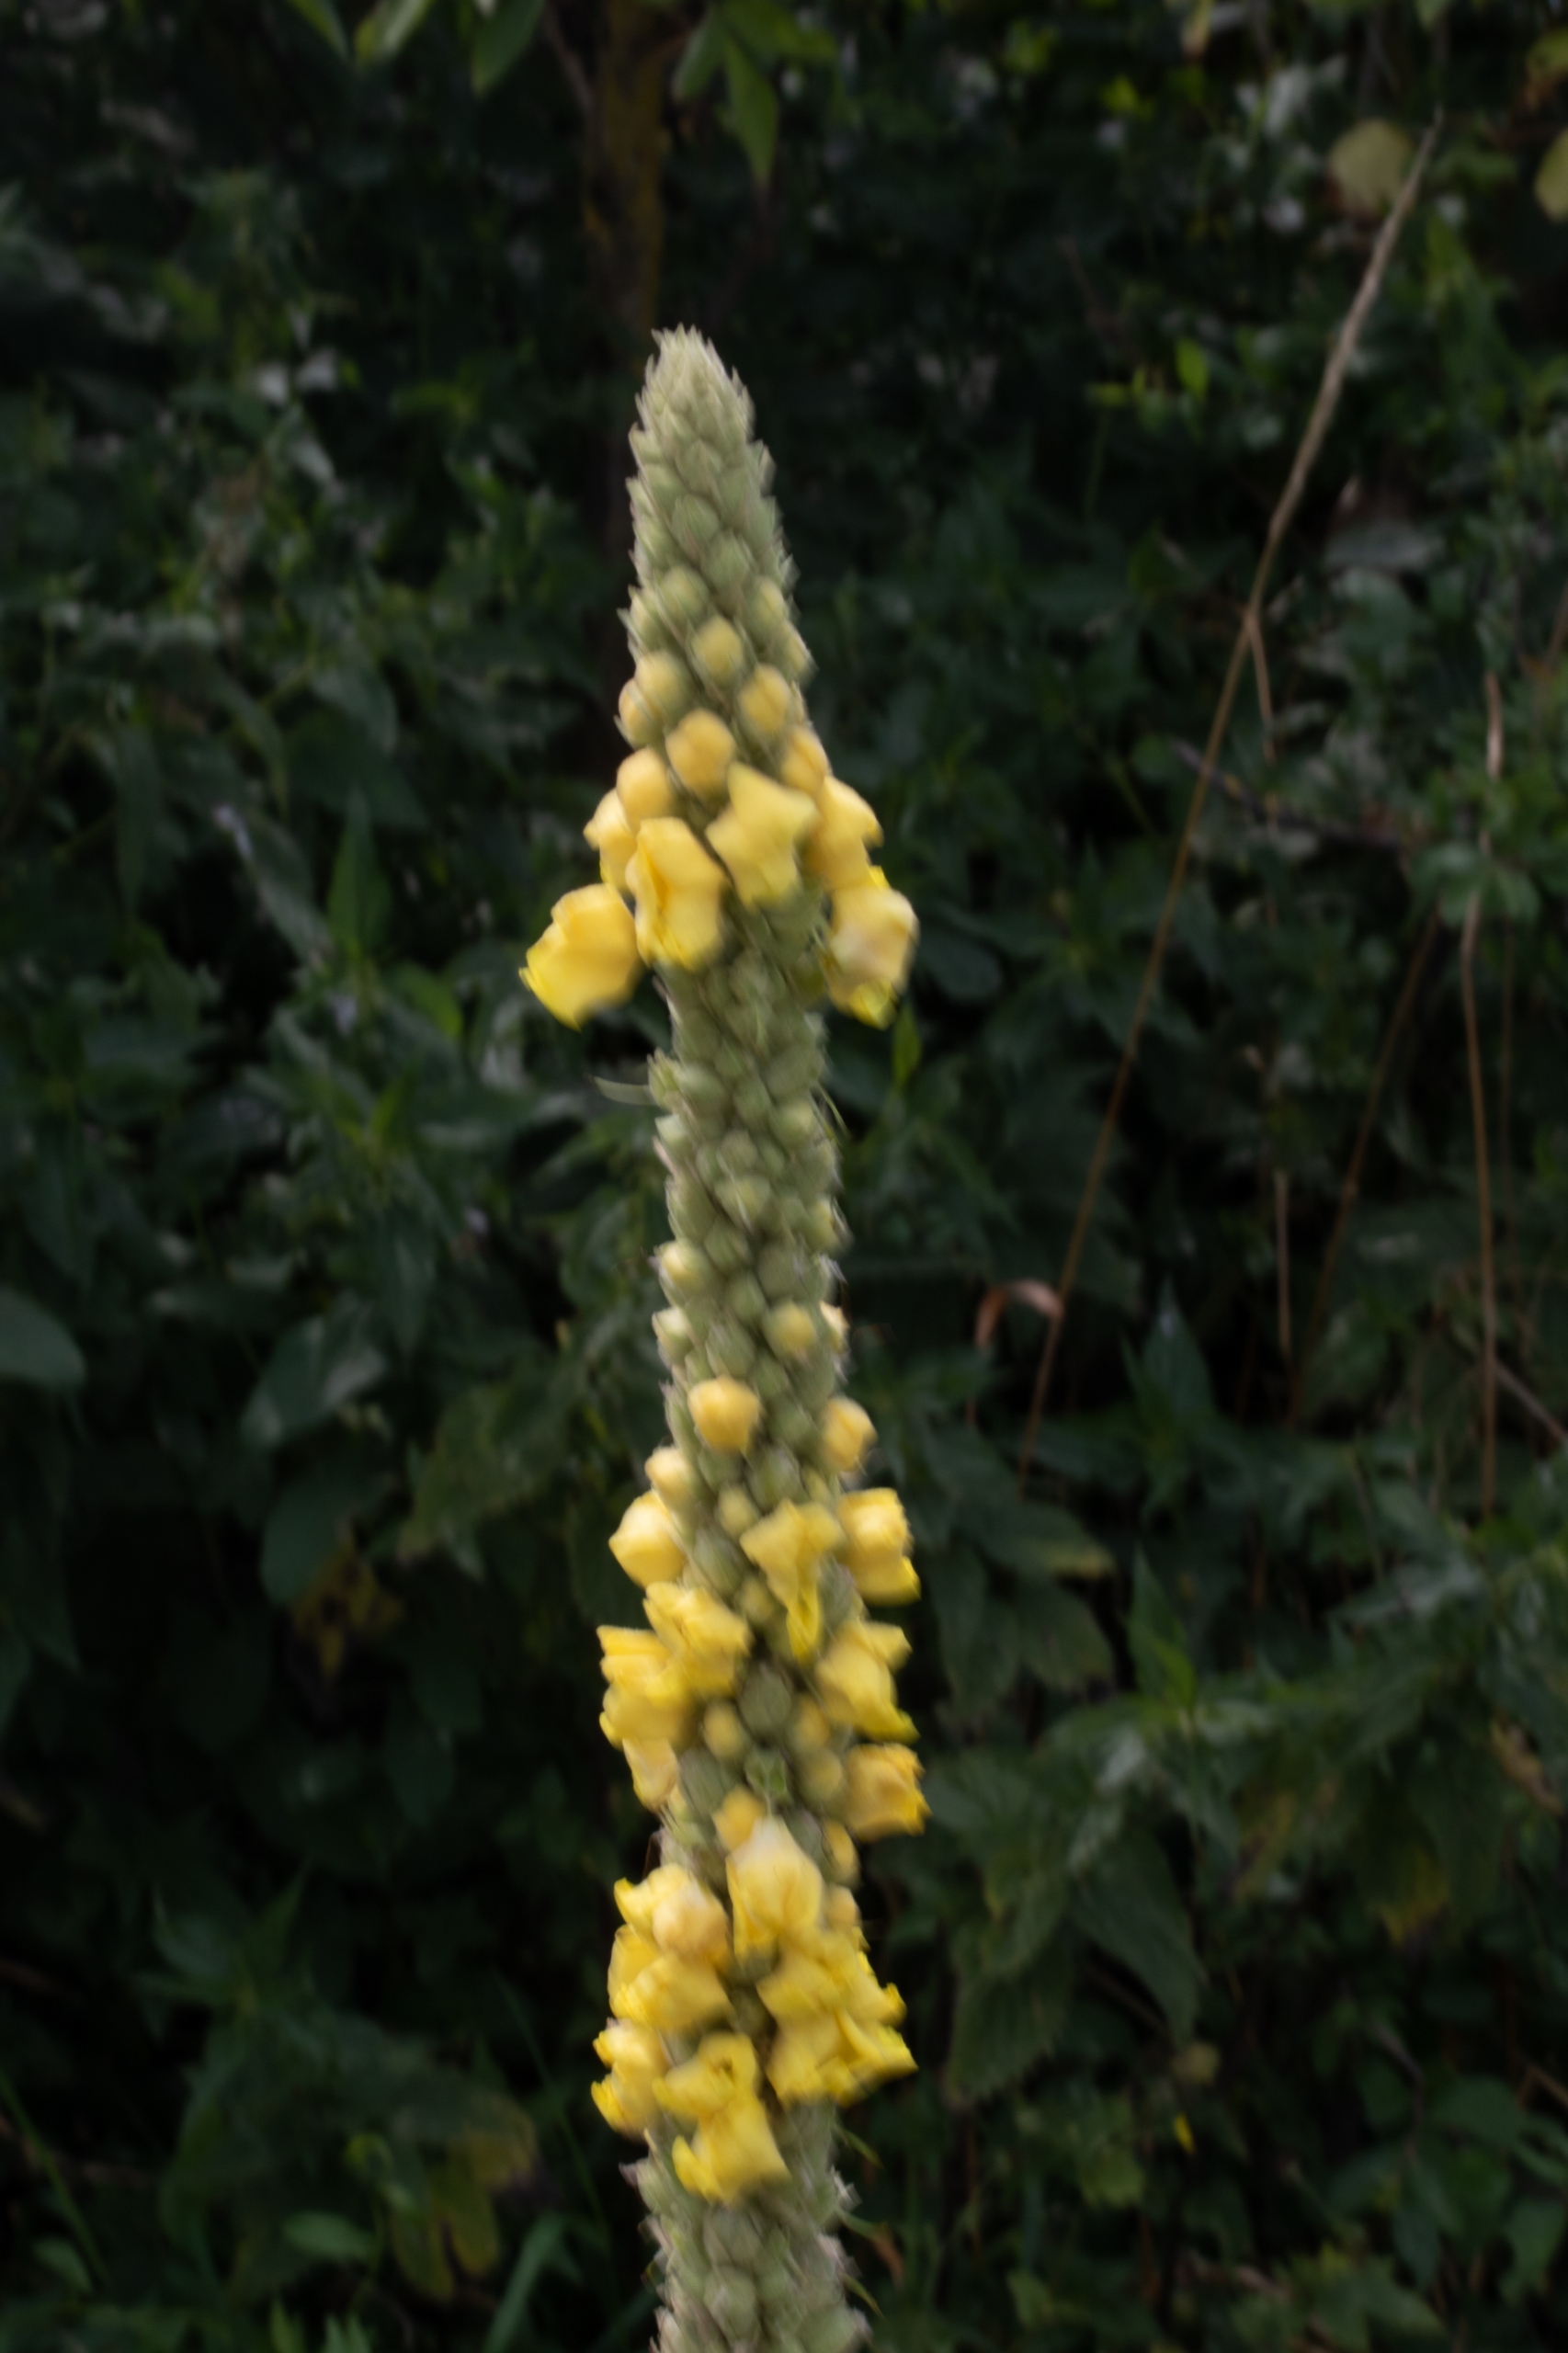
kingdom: Plantae
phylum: Tracheophyta
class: Magnoliopsida
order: Lamiales
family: Scrophulariaceae
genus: Verbascum
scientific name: Verbascum densiflorum
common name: Uldbladet kongelys
